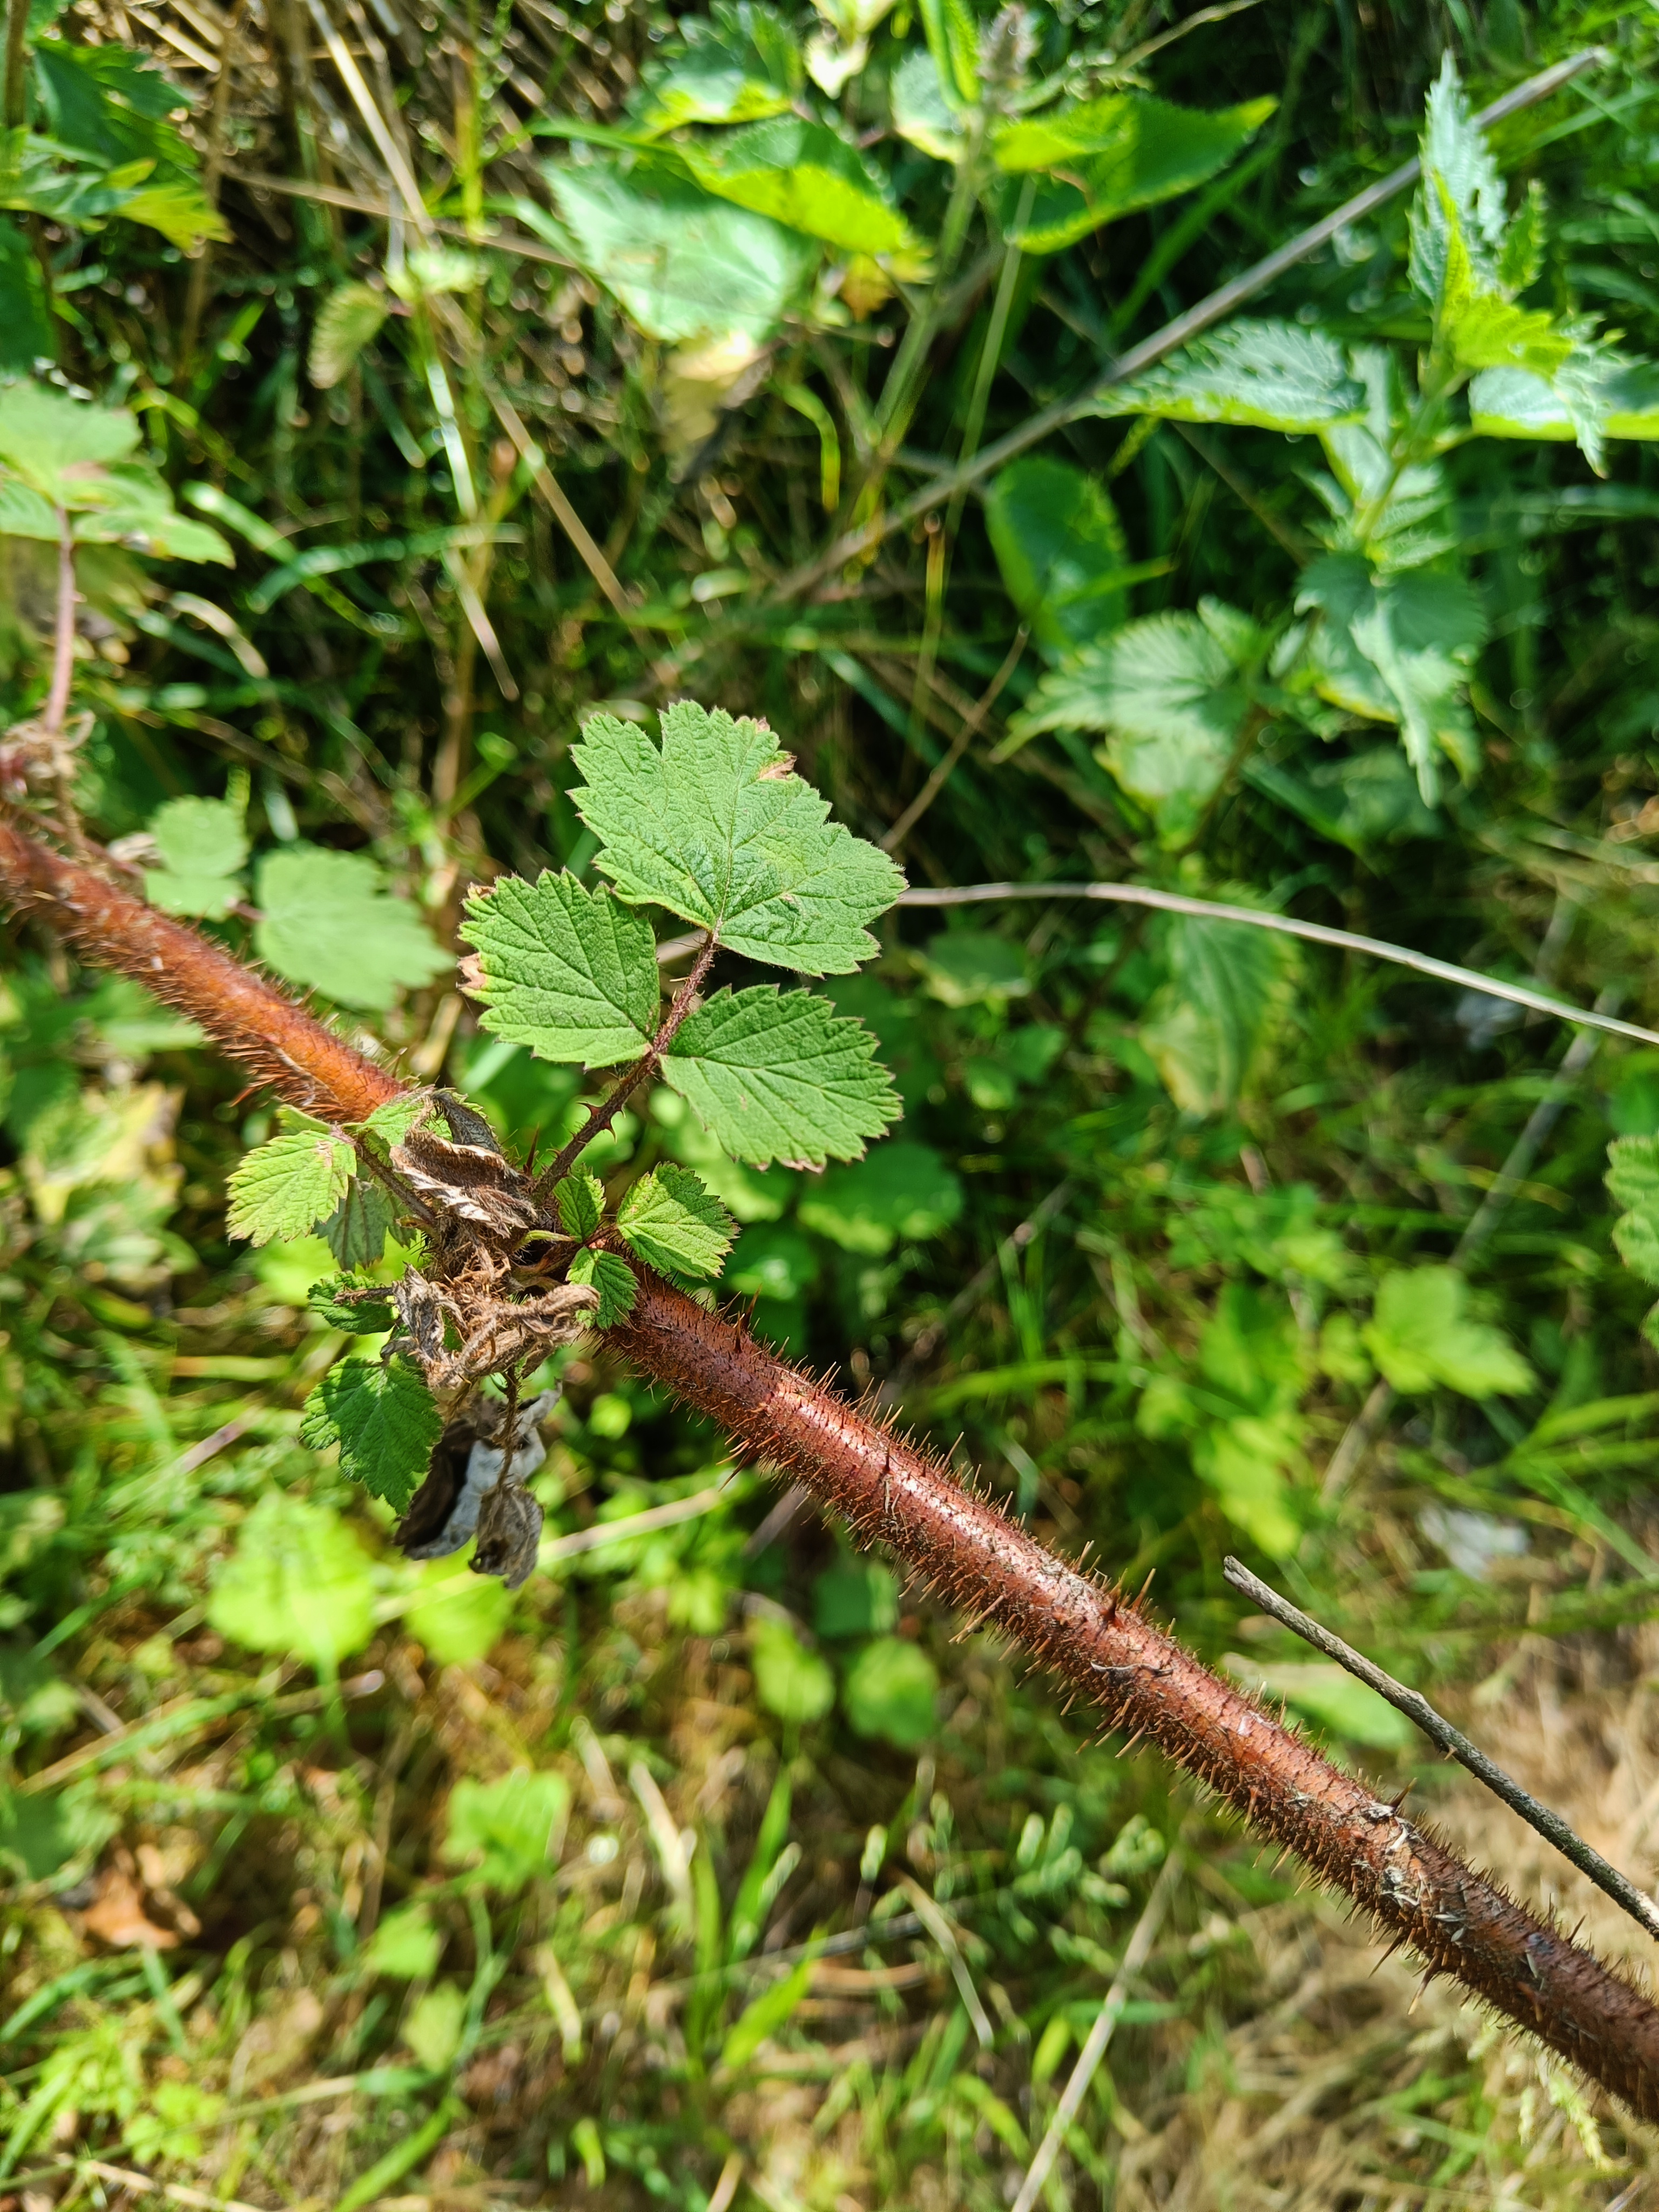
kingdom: Plantae
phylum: Tracheophyta
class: Magnoliopsida
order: Rosales
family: Rosaceae
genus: Rubus
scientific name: Rubus phoenicolasius
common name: Vin-brombær
